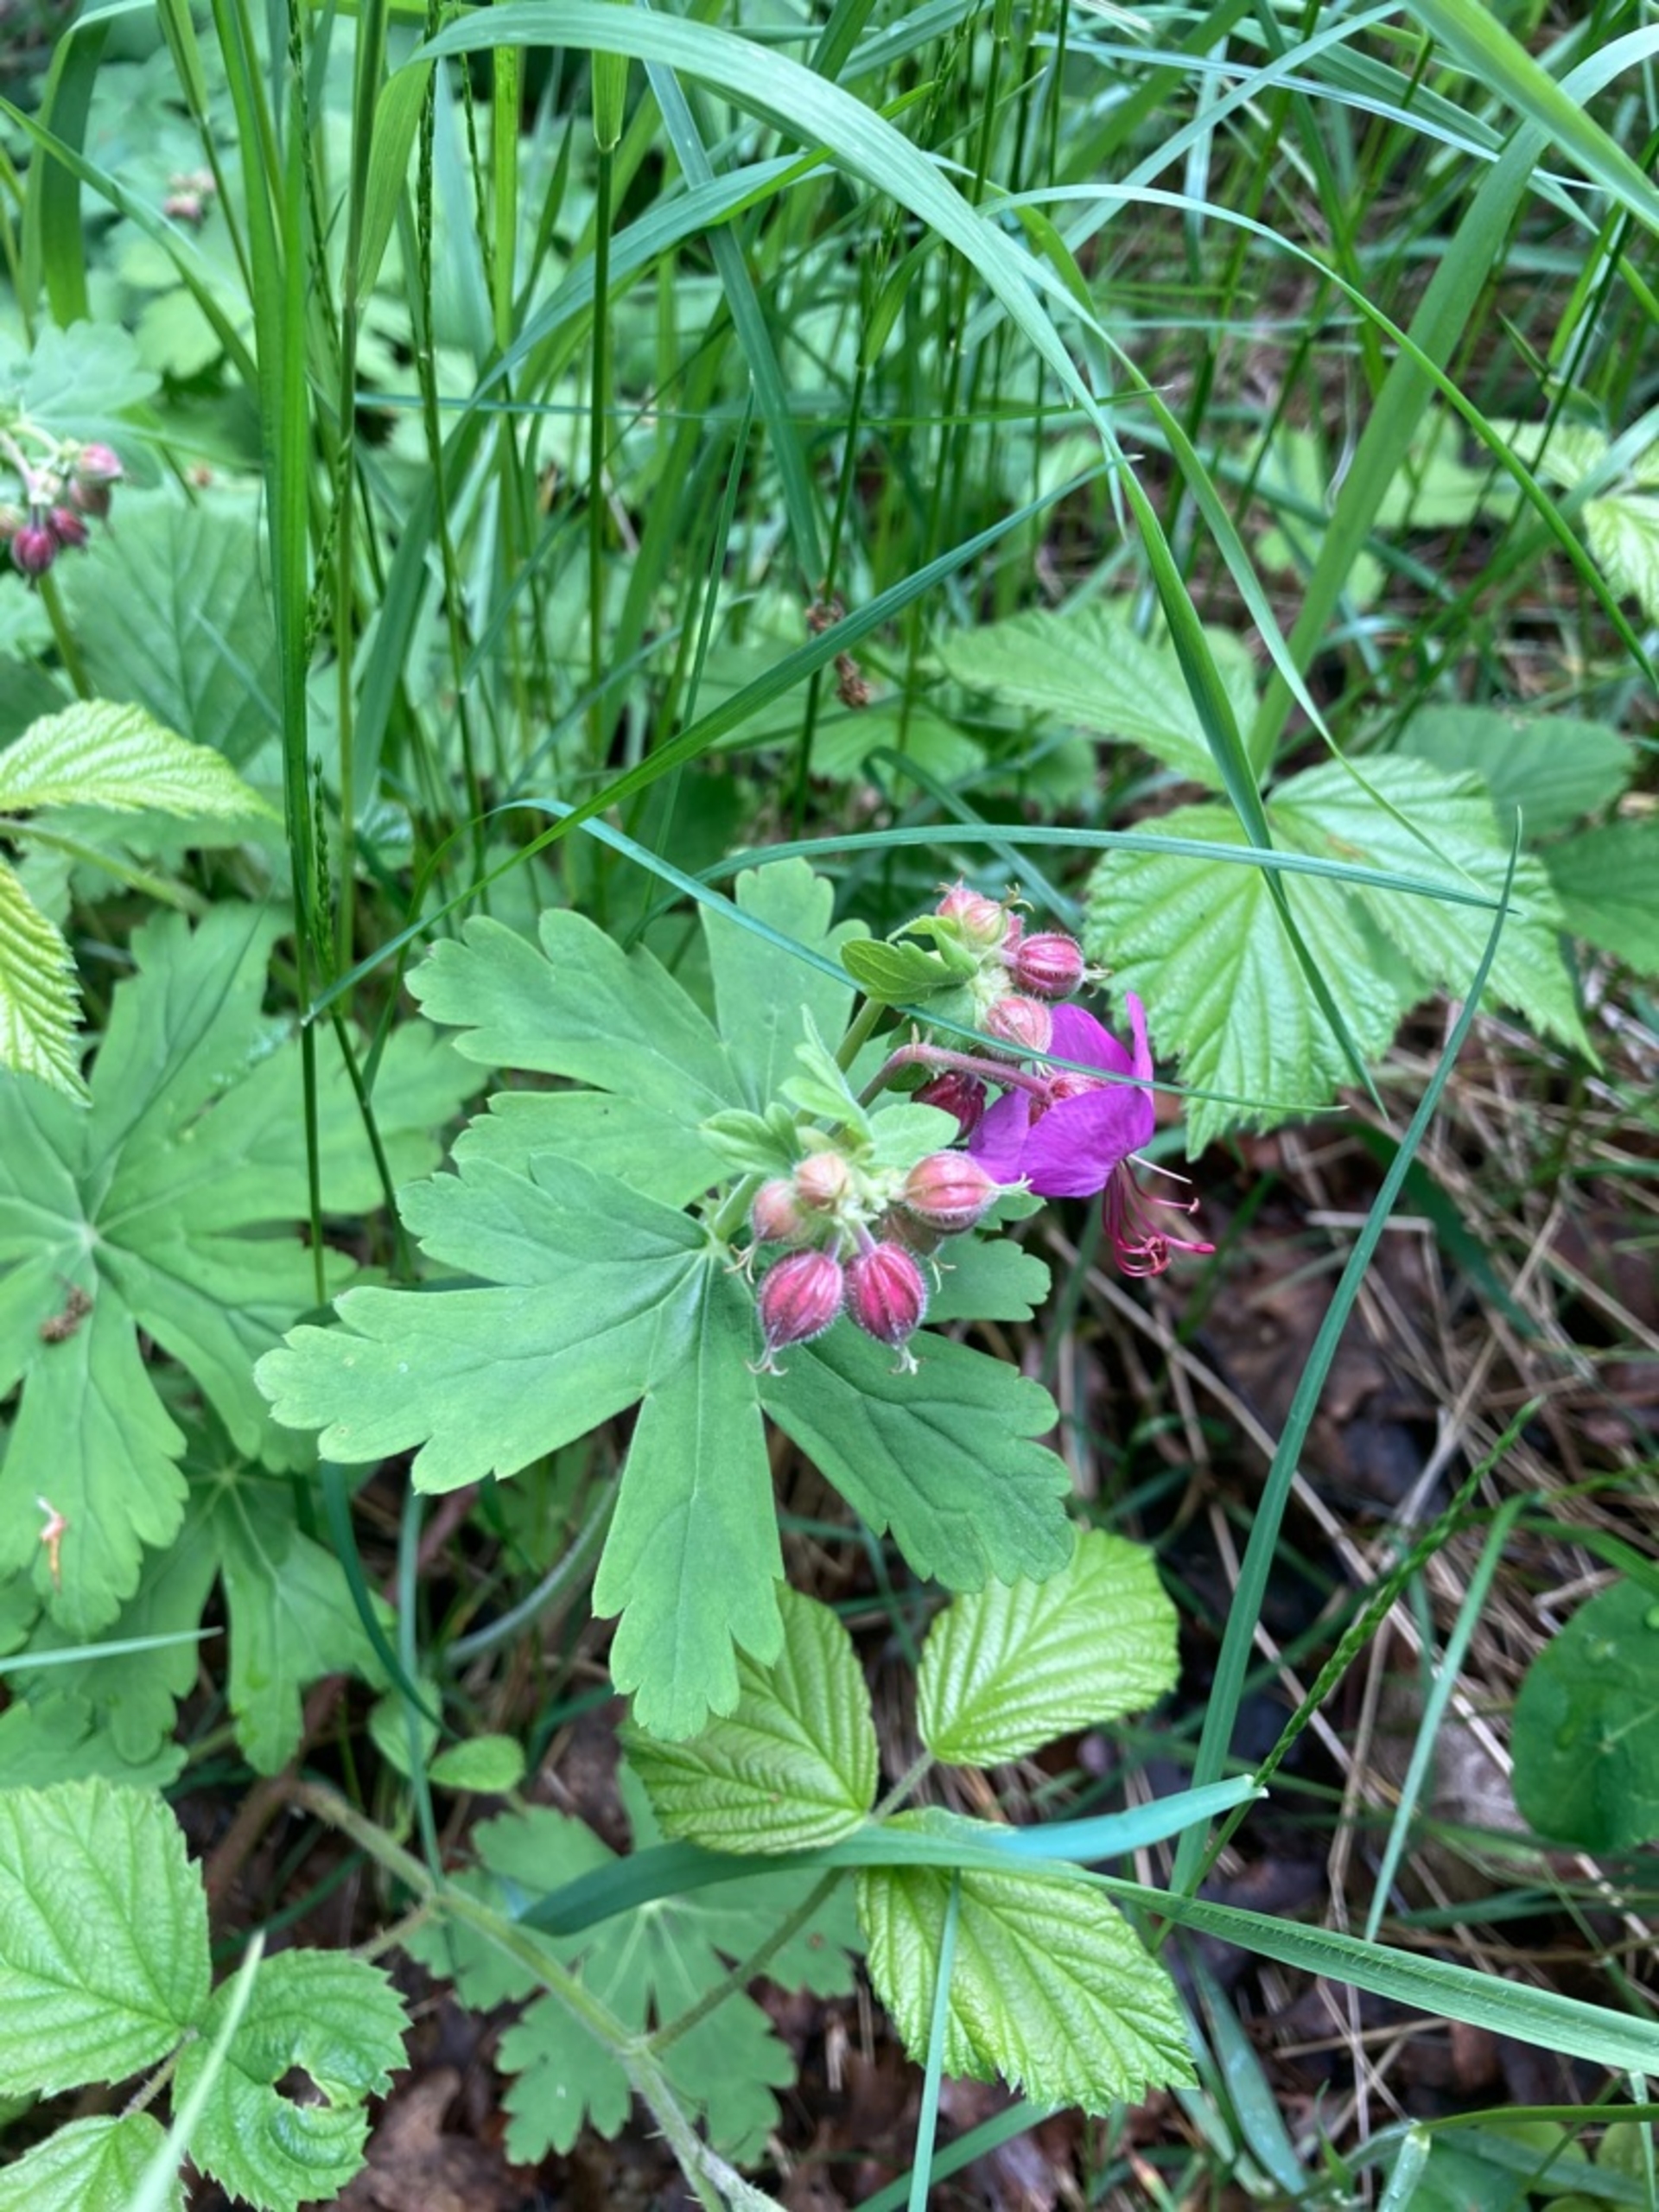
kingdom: Plantae
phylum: Tracheophyta
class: Magnoliopsida
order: Geraniales
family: Geraniaceae
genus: Geranium
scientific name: Geranium macrorrhizum
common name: Storrodet storkenæb
